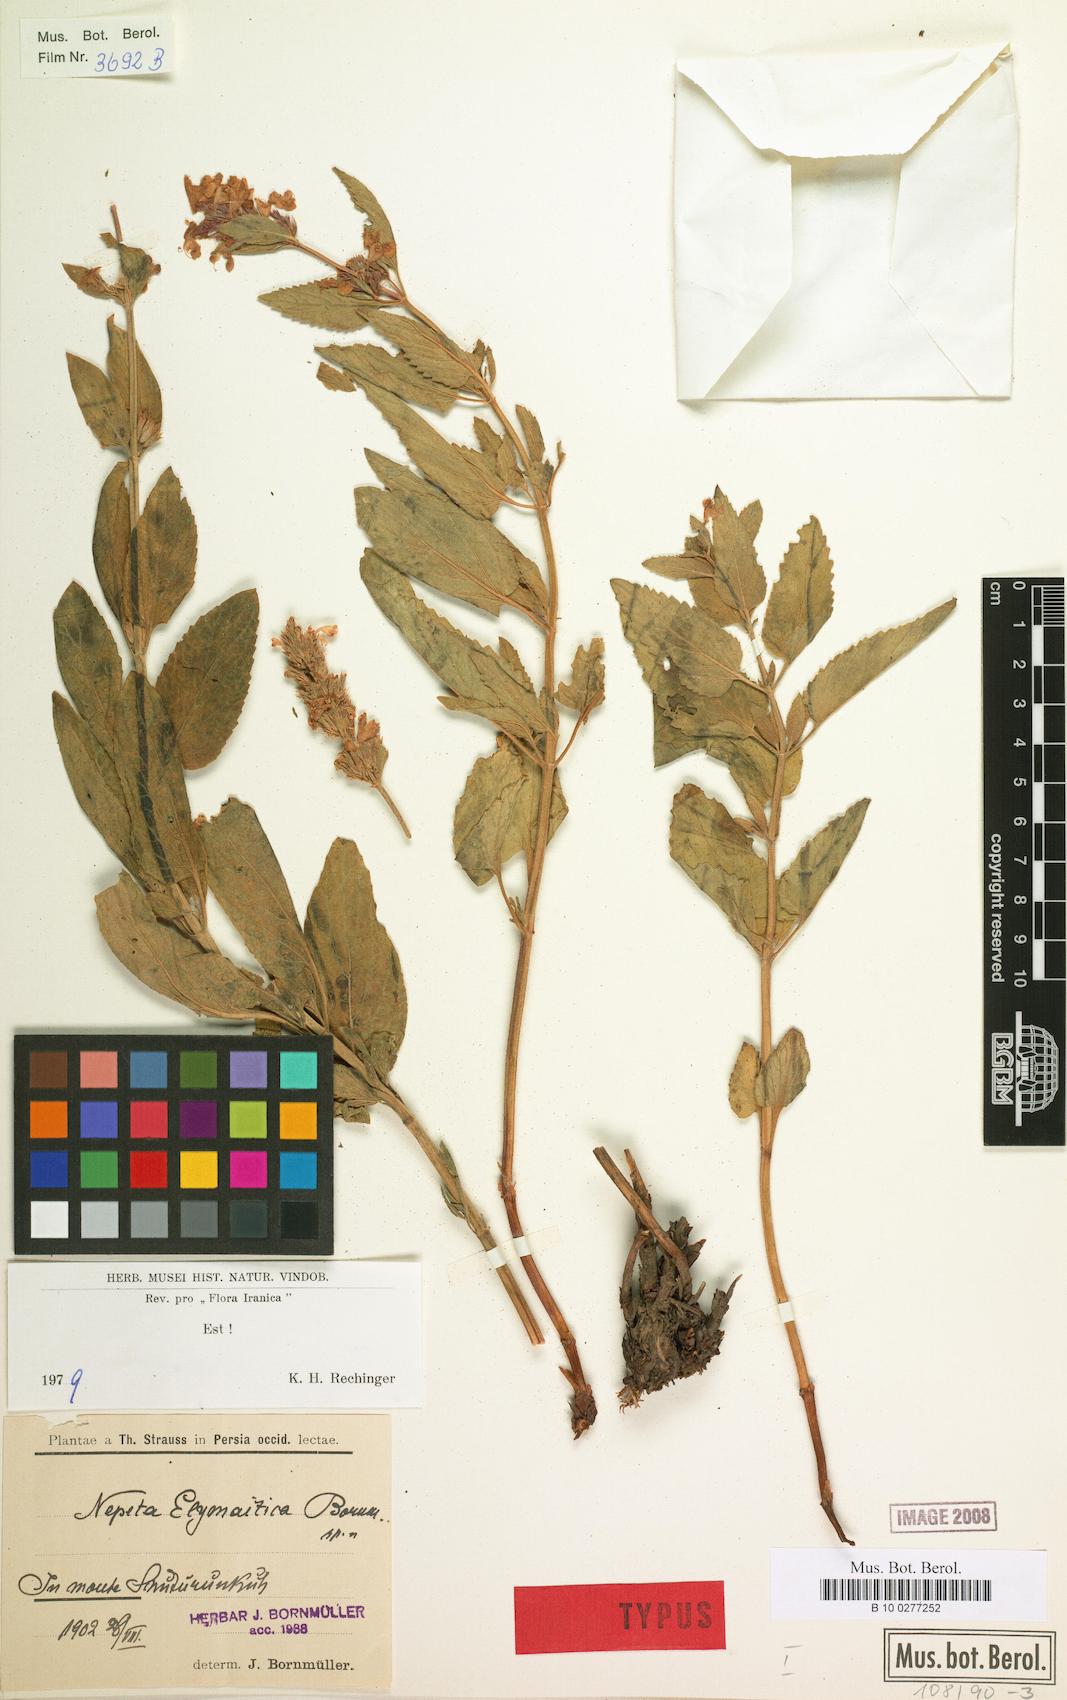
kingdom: Plantae
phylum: Tracheophyta
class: Magnoliopsida
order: Lamiales
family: Lamiaceae
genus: Nepeta
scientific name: Nepeta elymaitica
